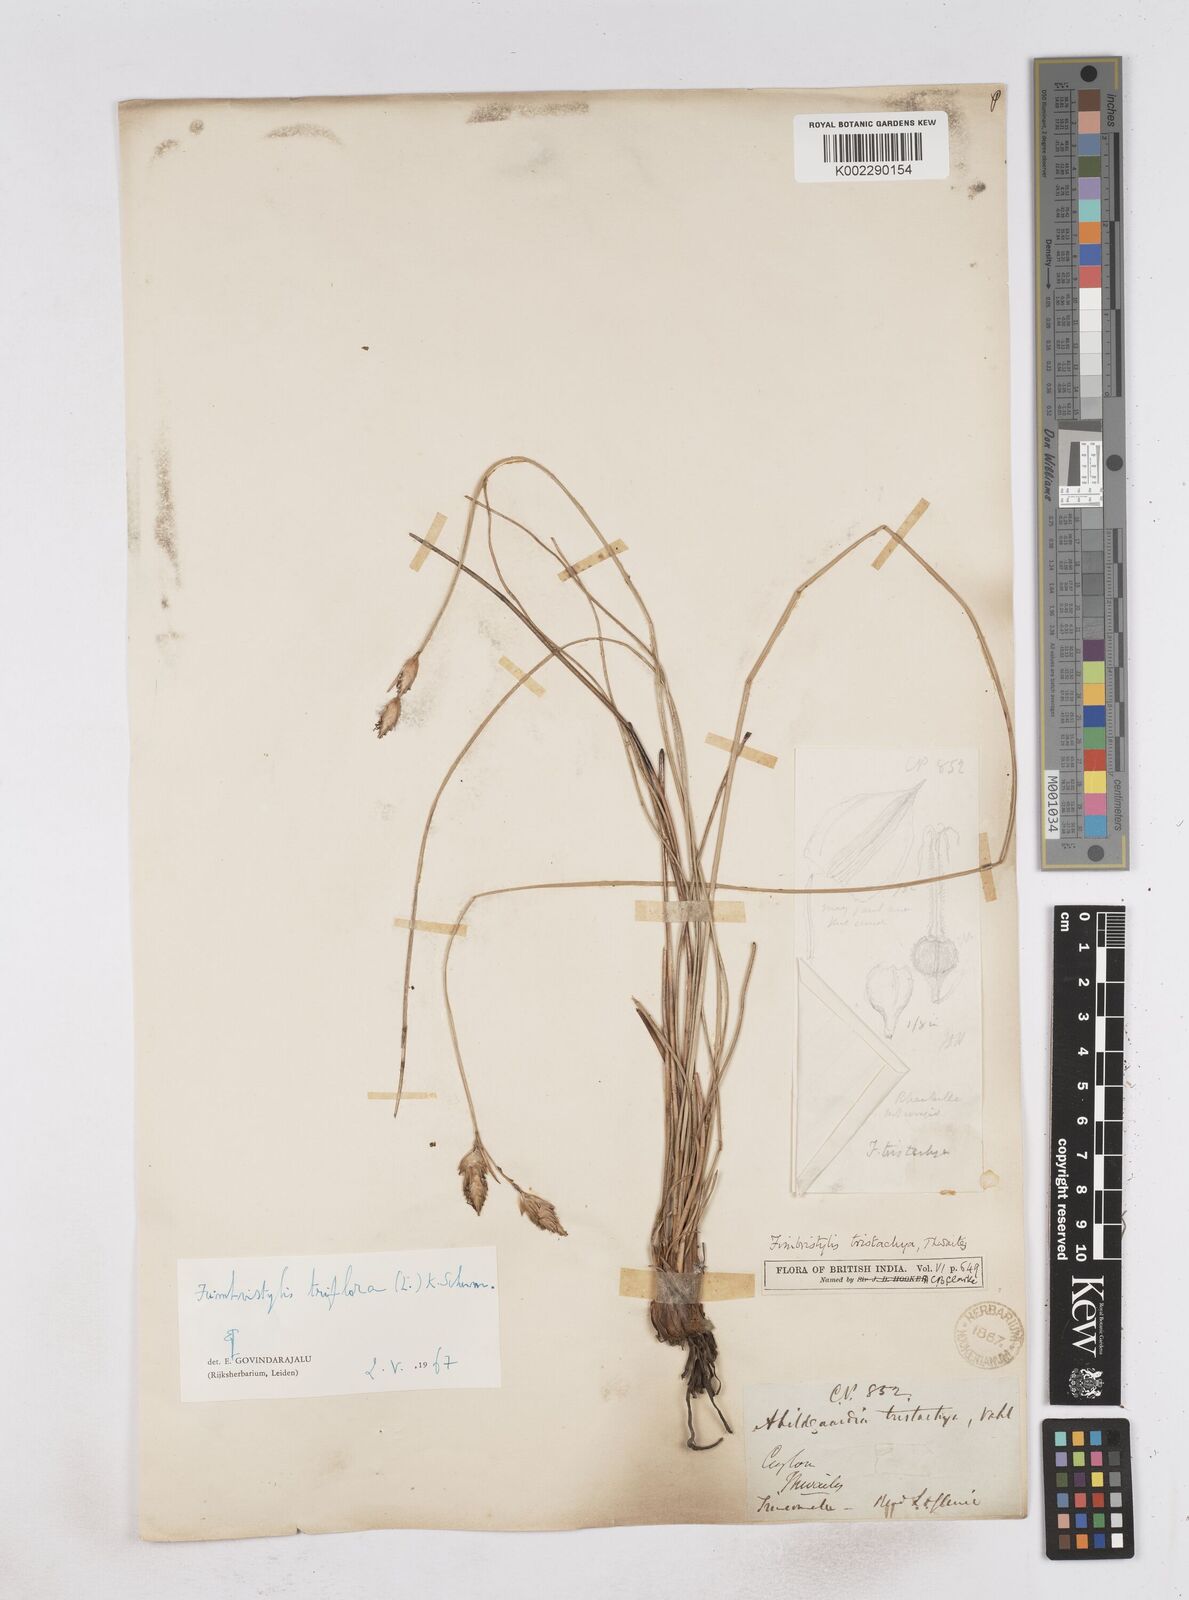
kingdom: Plantae
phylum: Tracheophyta
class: Liliopsida
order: Poales
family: Cyperaceae
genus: Abildgaardia
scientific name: Abildgaardia triflora
